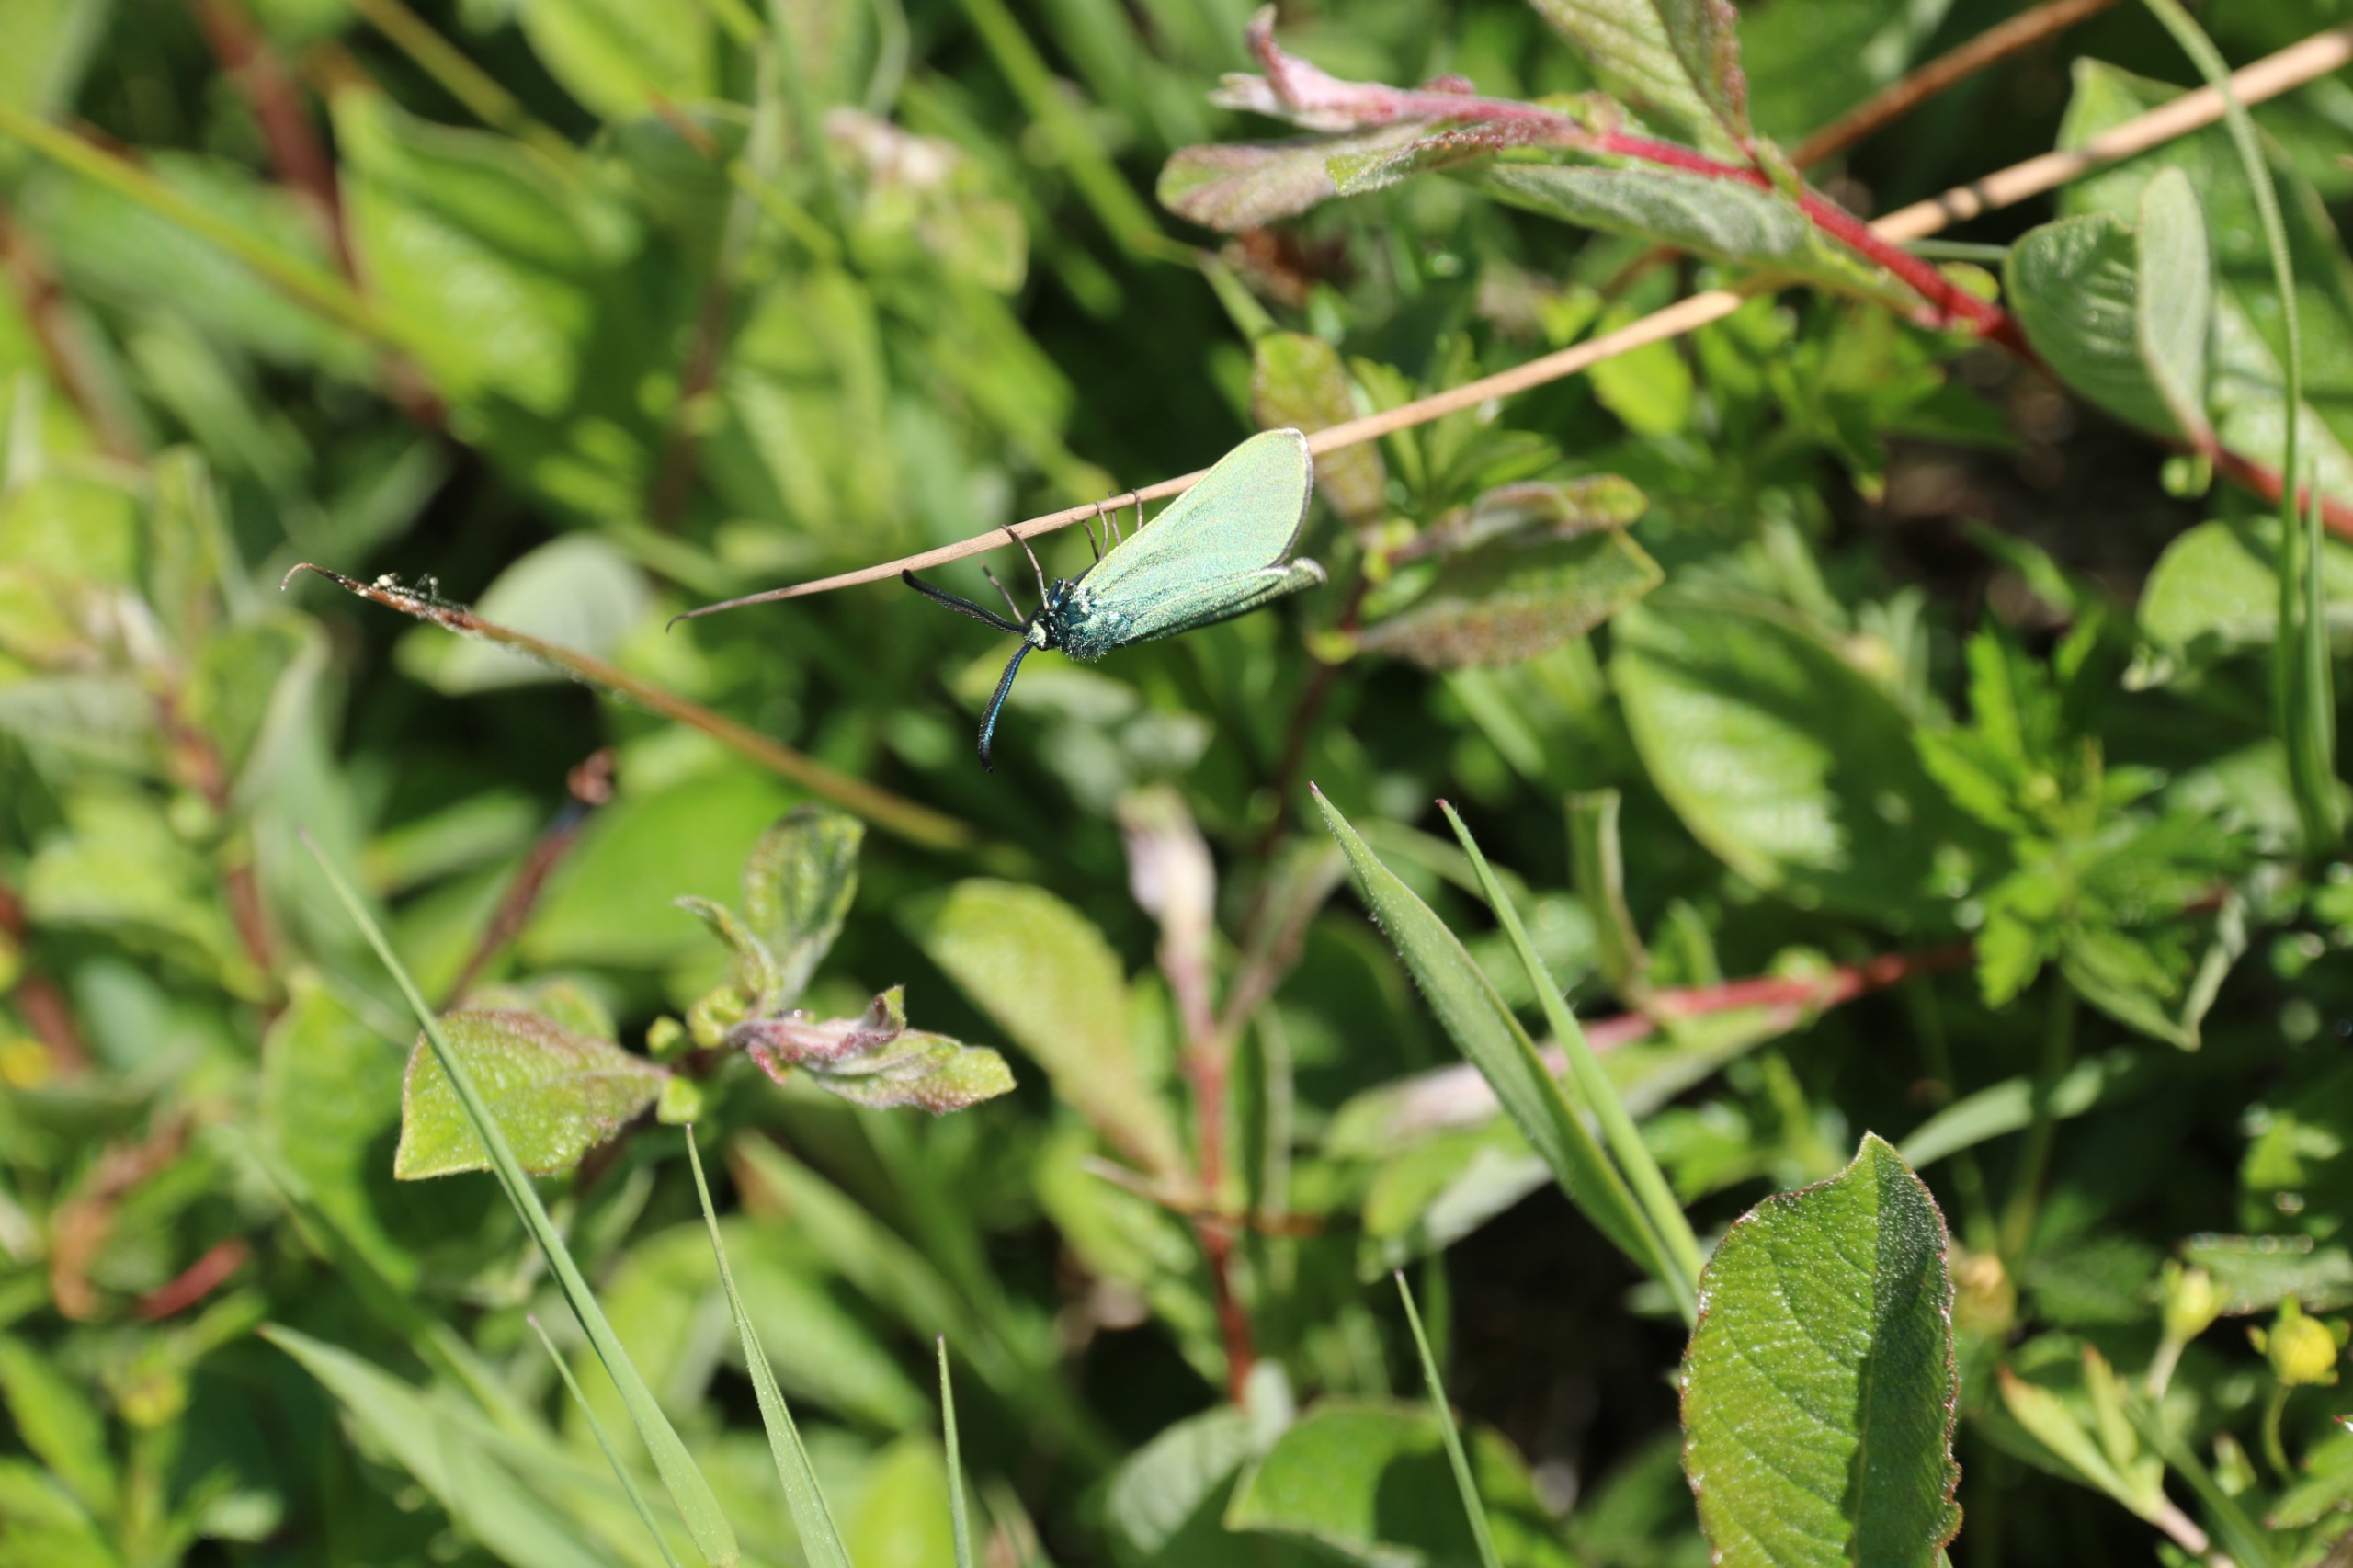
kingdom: Animalia
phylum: Arthropoda
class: Insecta
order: Lepidoptera
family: Zygaenidae
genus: Adscita
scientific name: Adscita statices
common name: Metalvinge
